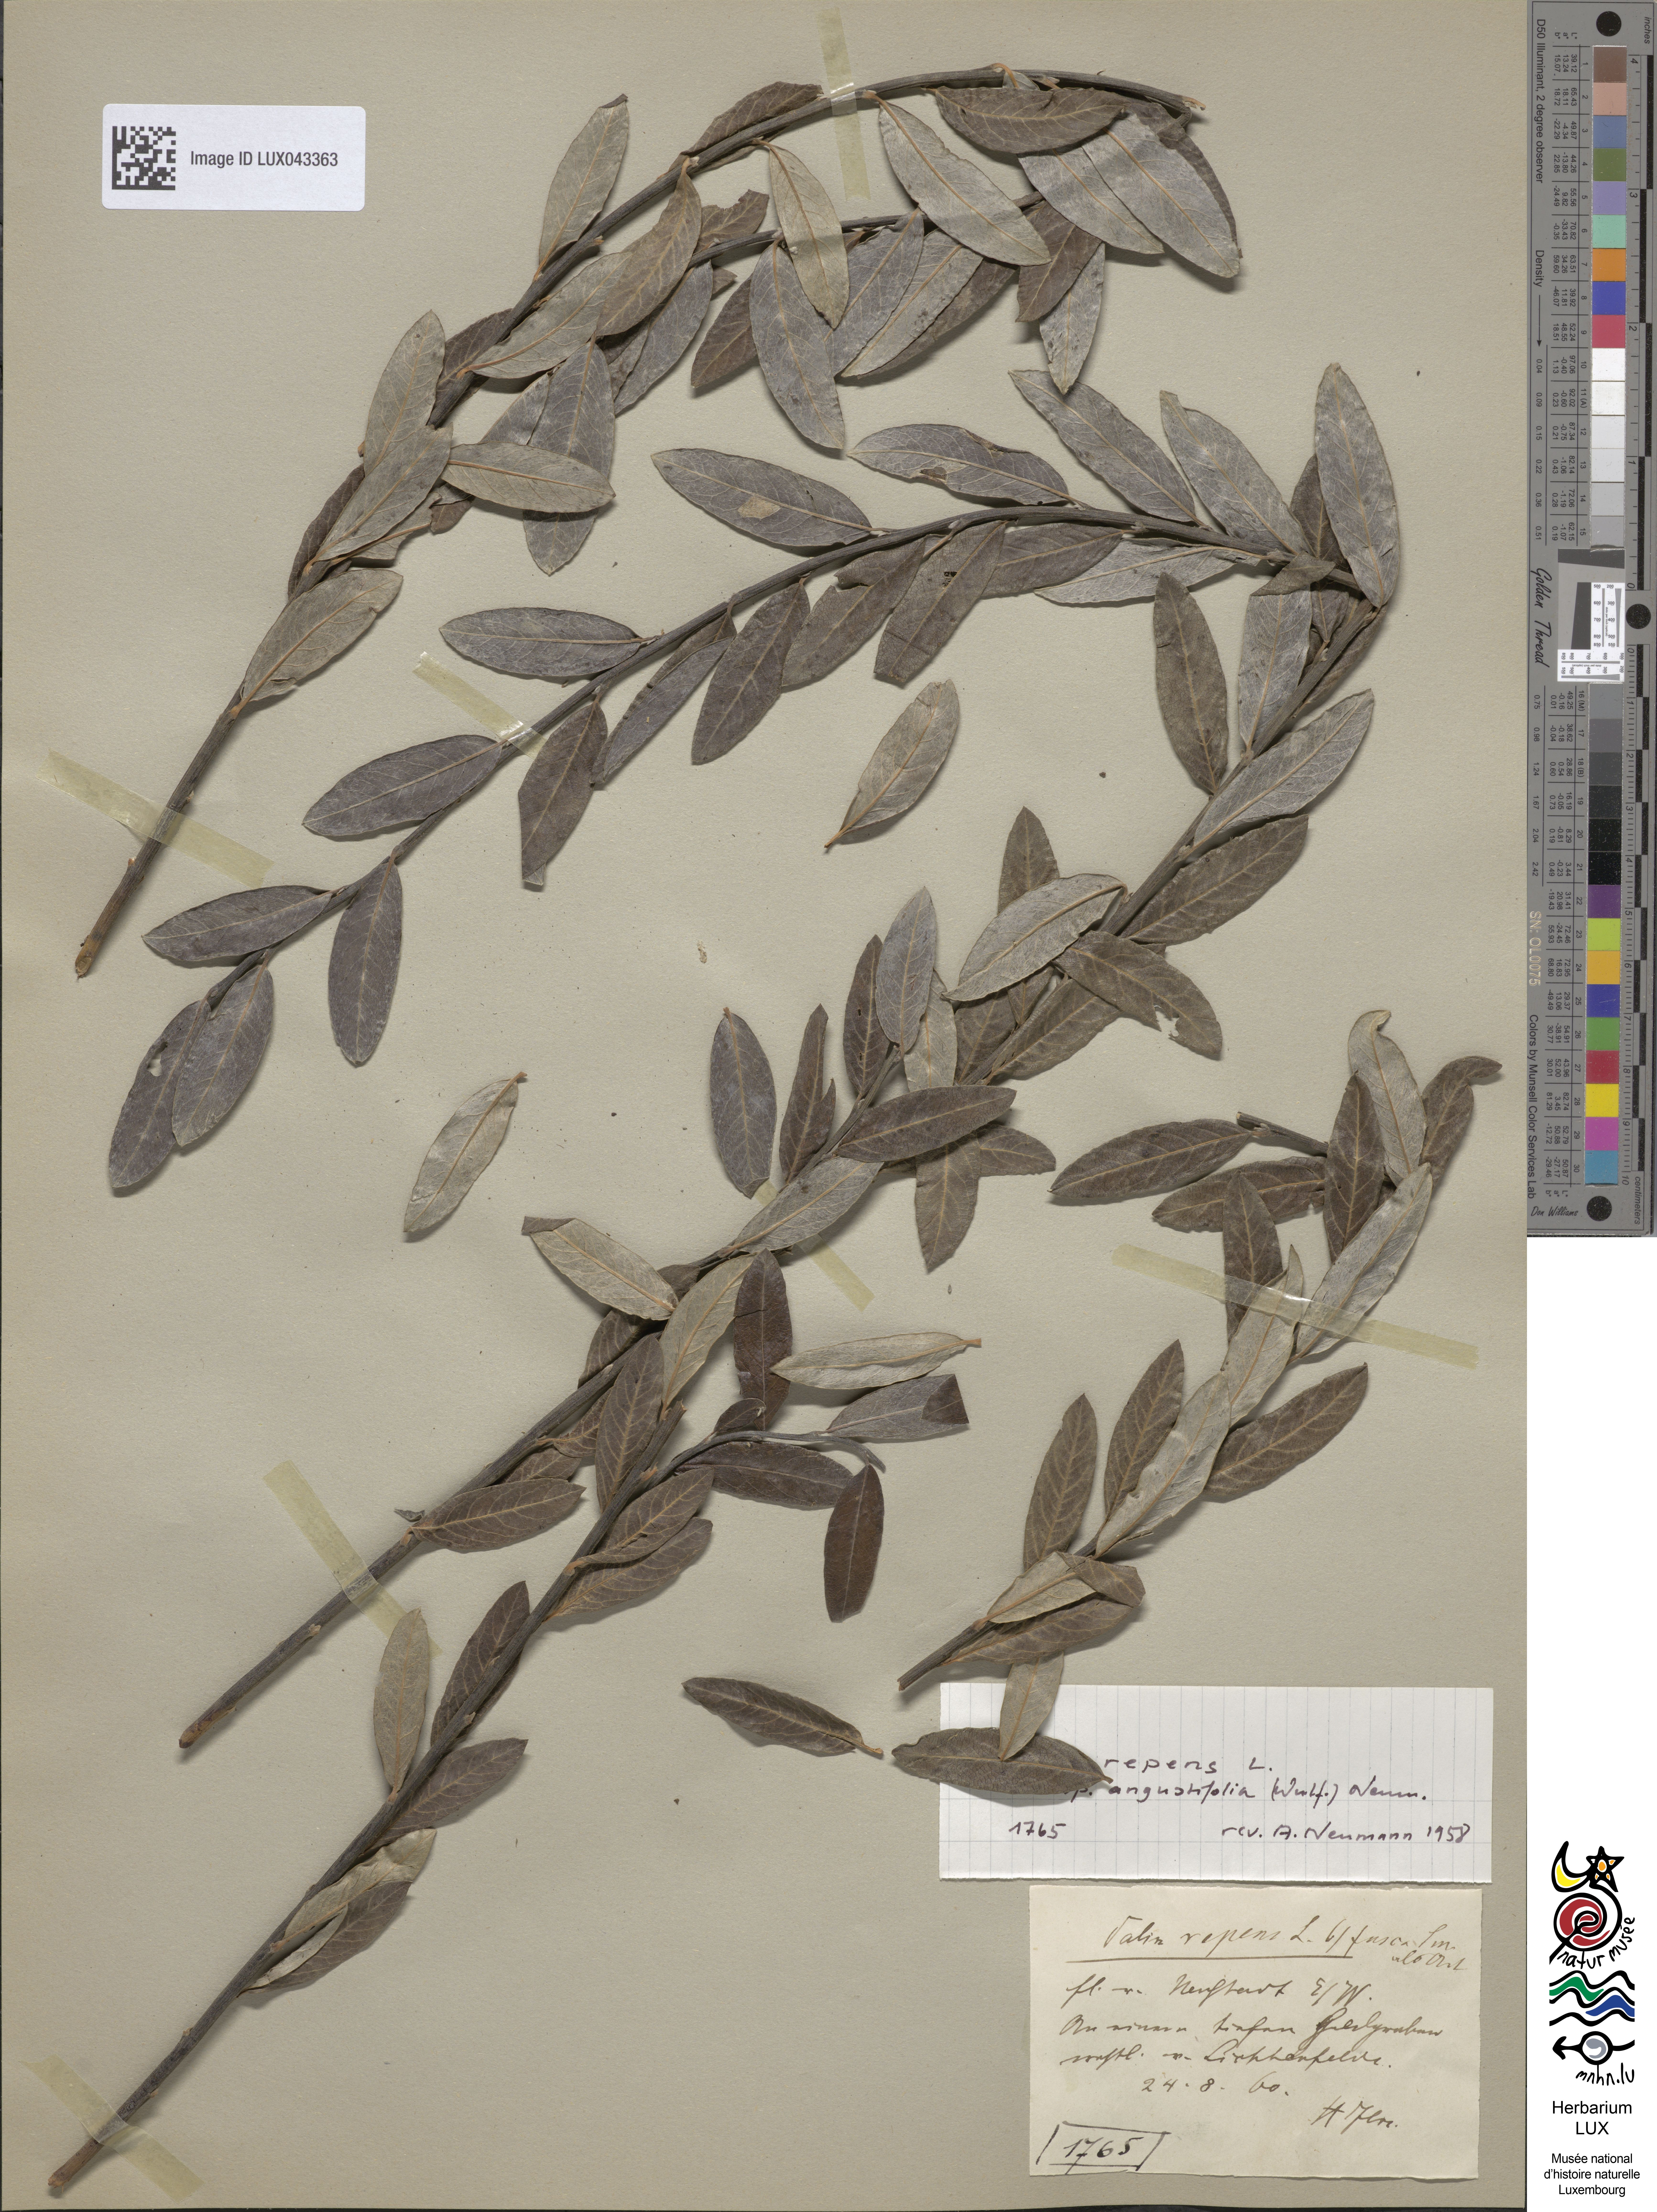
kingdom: Plantae
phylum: Tracheophyta
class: Magnoliopsida
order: Malpighiales
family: Salicaceae
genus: Salix
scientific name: Salix repens
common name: Creeping willow
